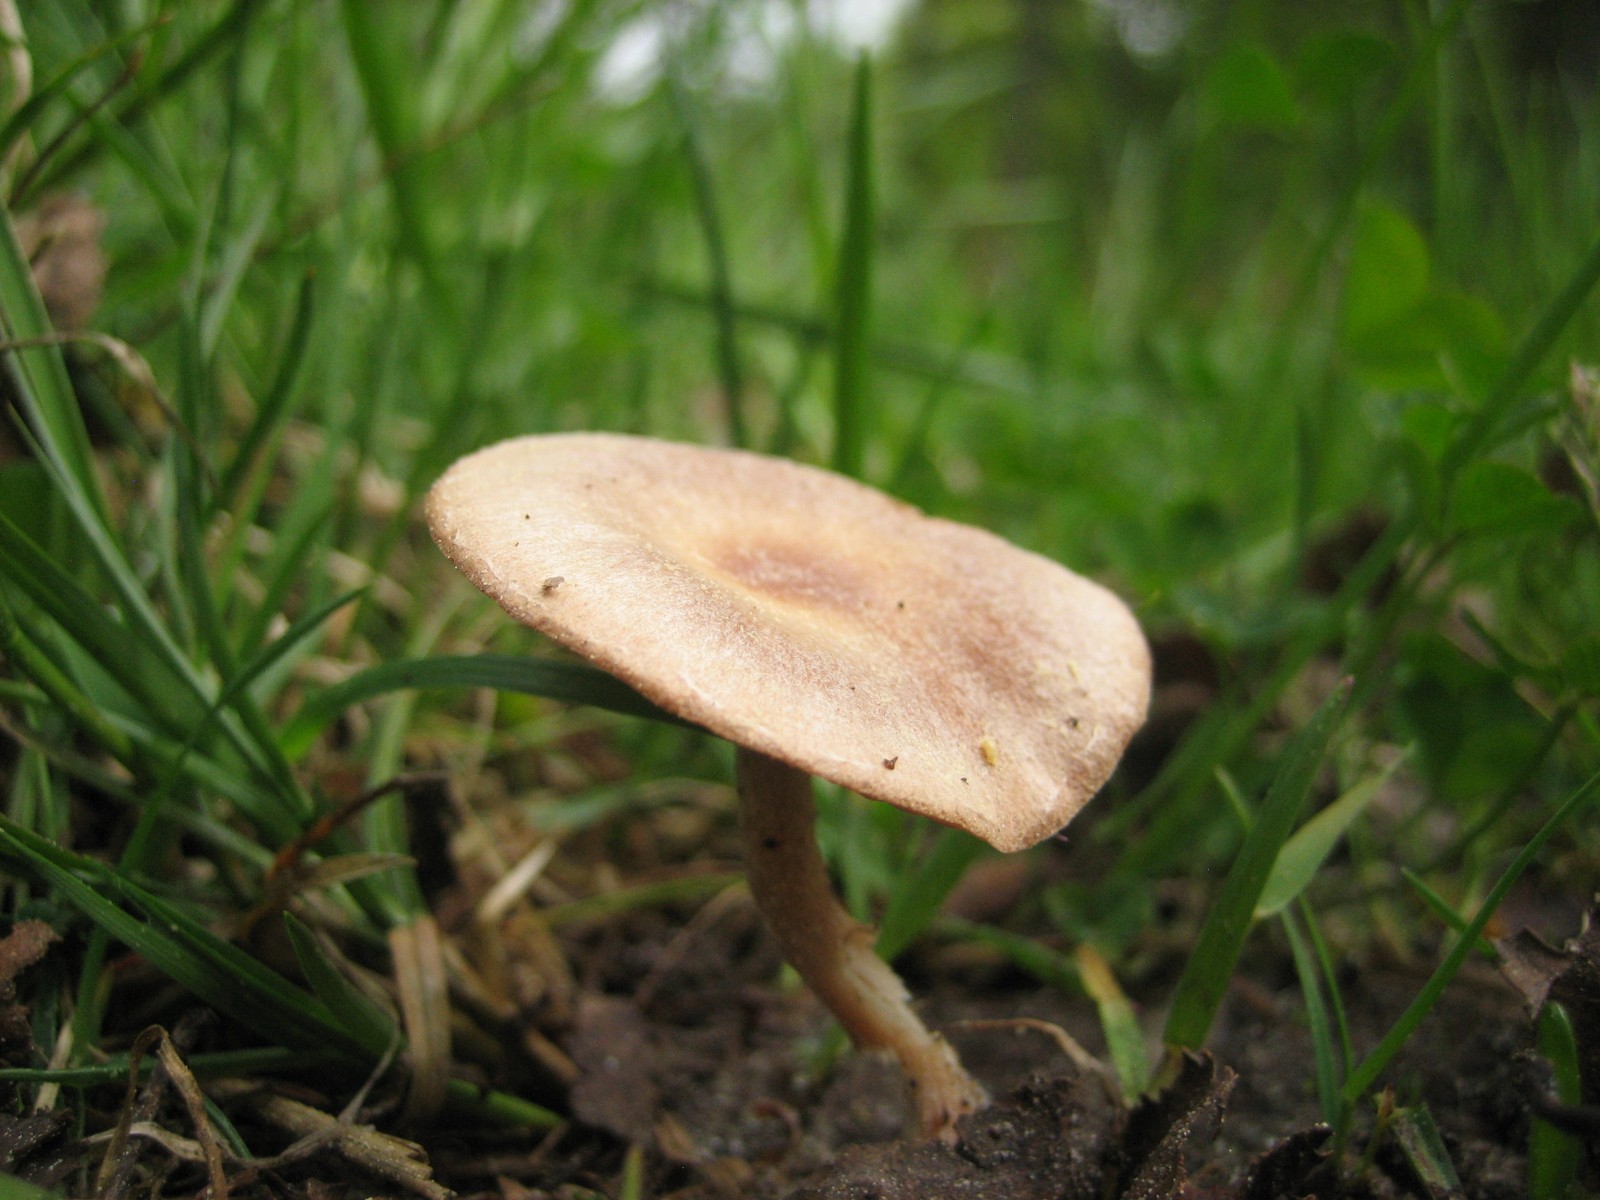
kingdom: Fungi
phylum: Basidiomycota
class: Agaricomycetes
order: Agaricales
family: Tubariaceae
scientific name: Tubariaceae
